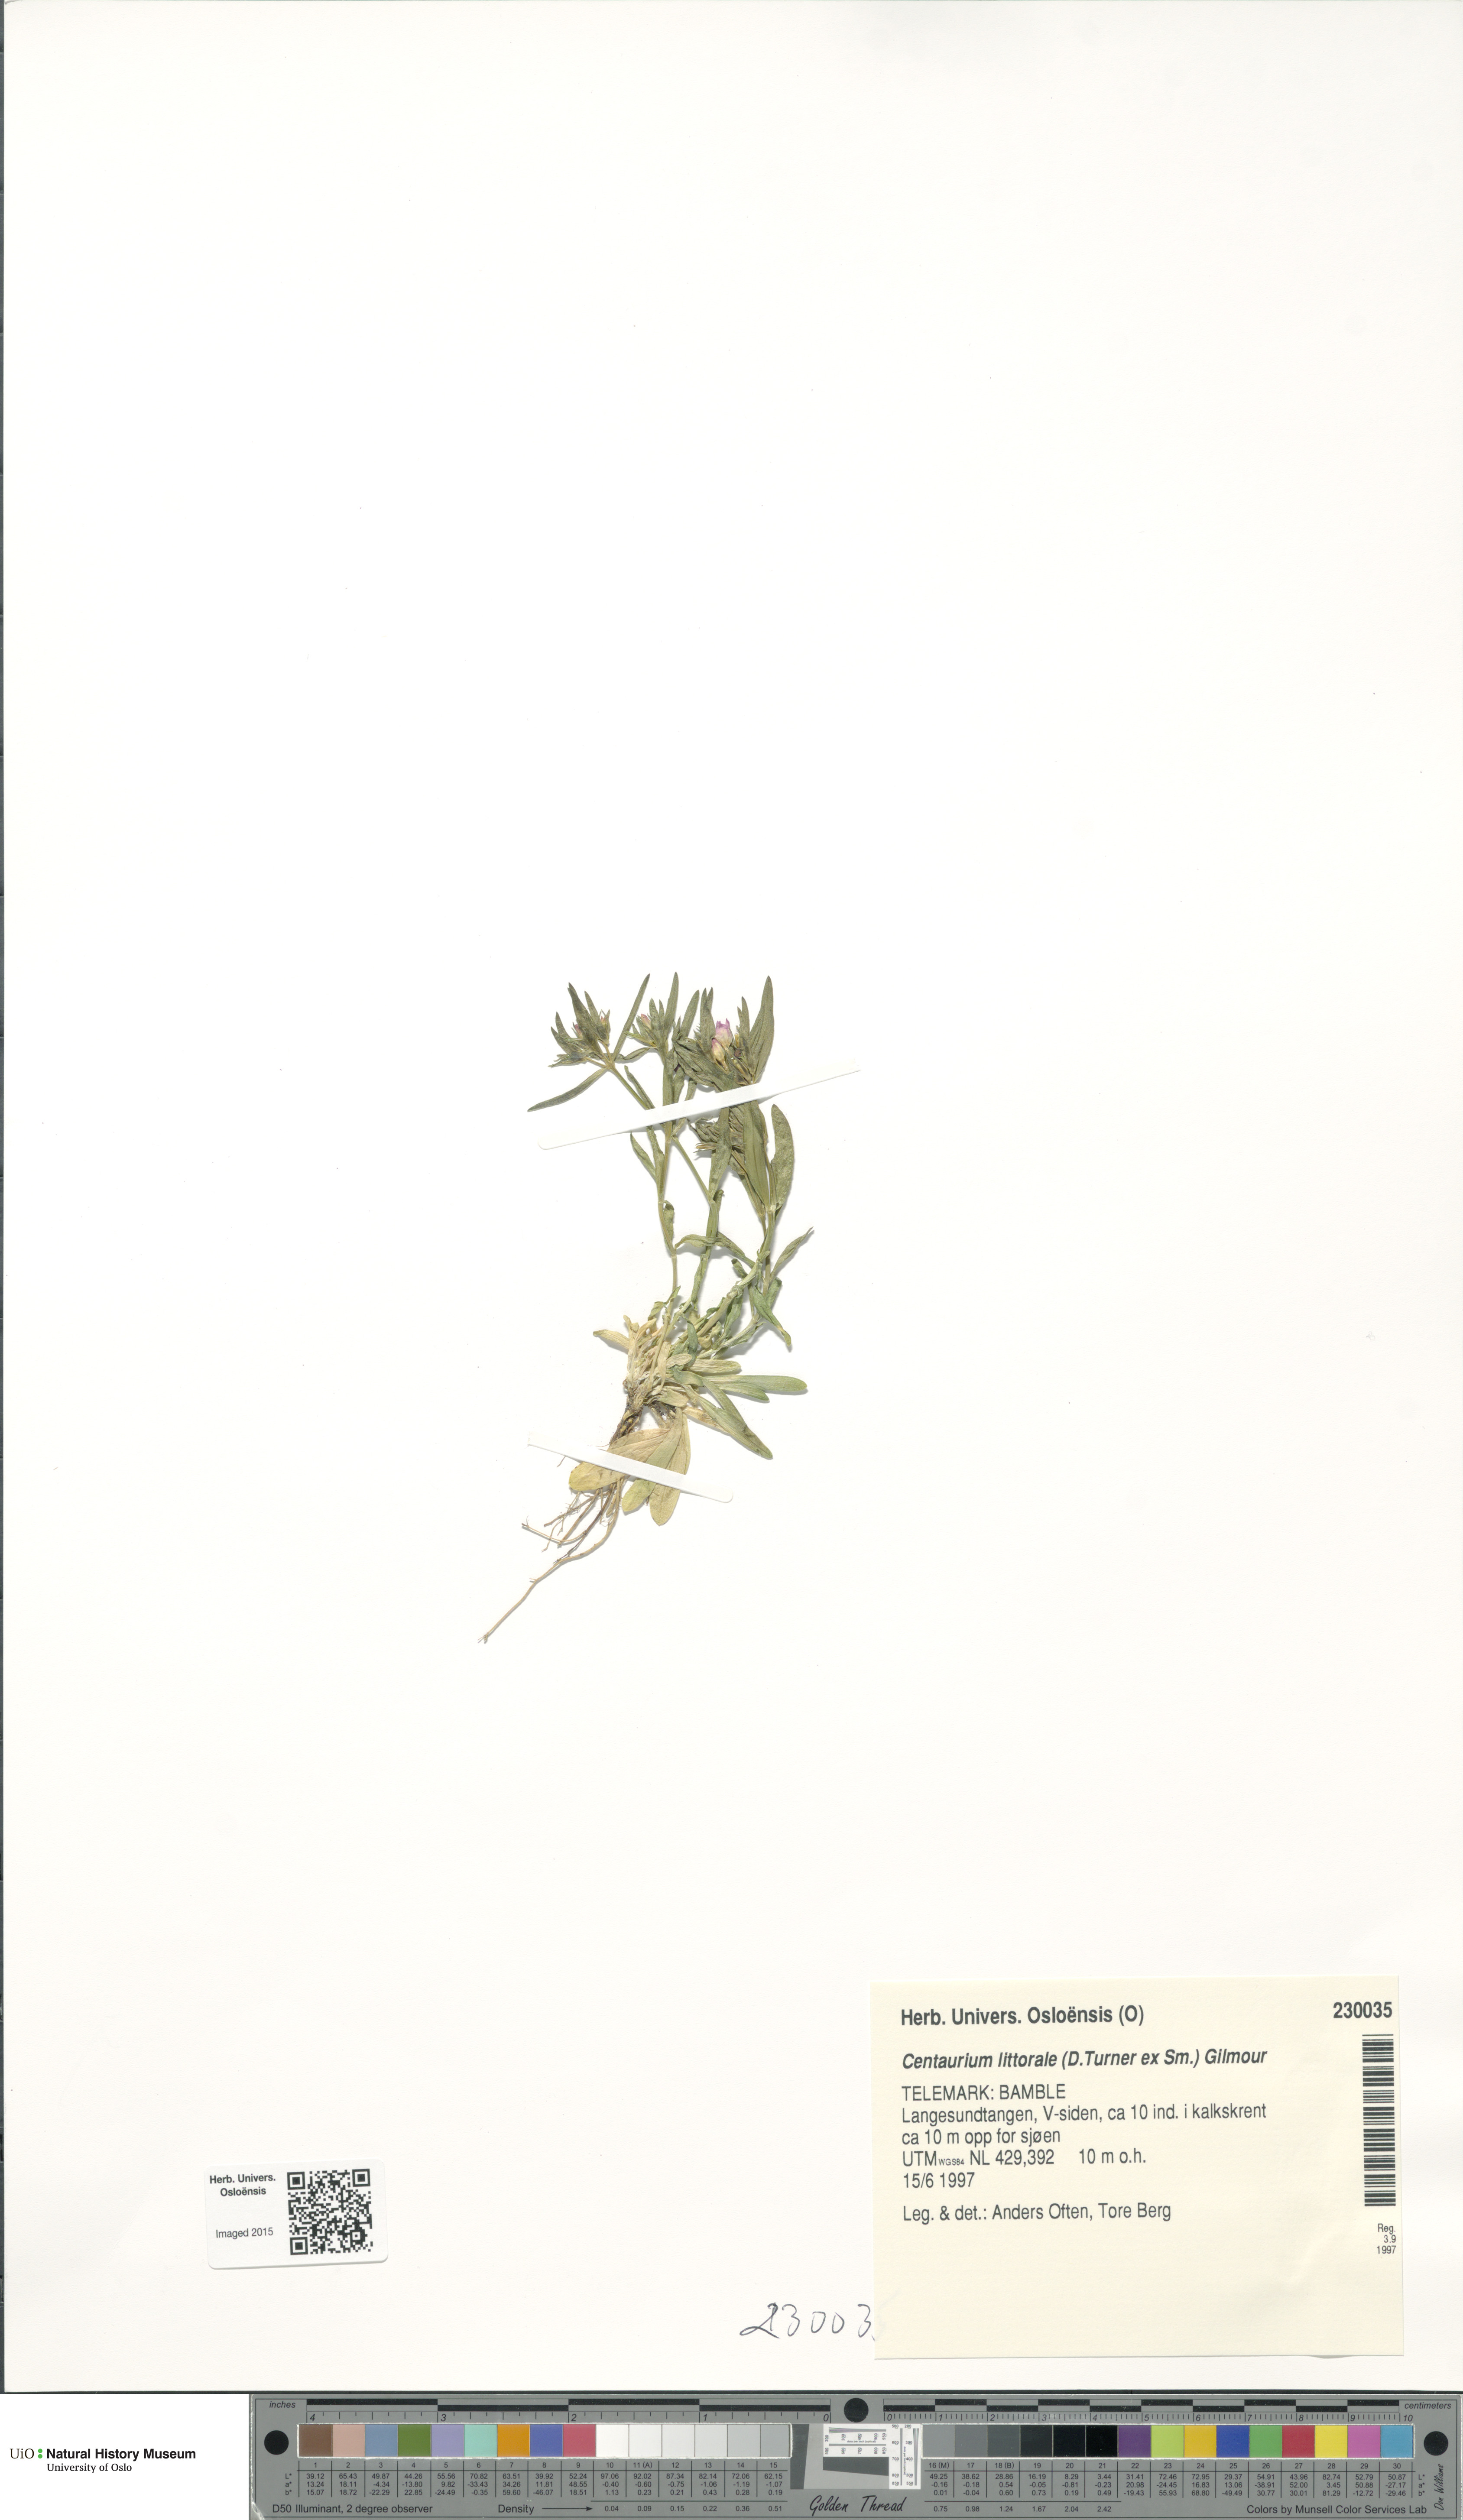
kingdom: Plantae
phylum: Tracheophyta
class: Magnoliopsida
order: Gentianales
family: Gentianaceae
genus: Centaurium
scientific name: Centaurium littorale
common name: Seaside centaury
